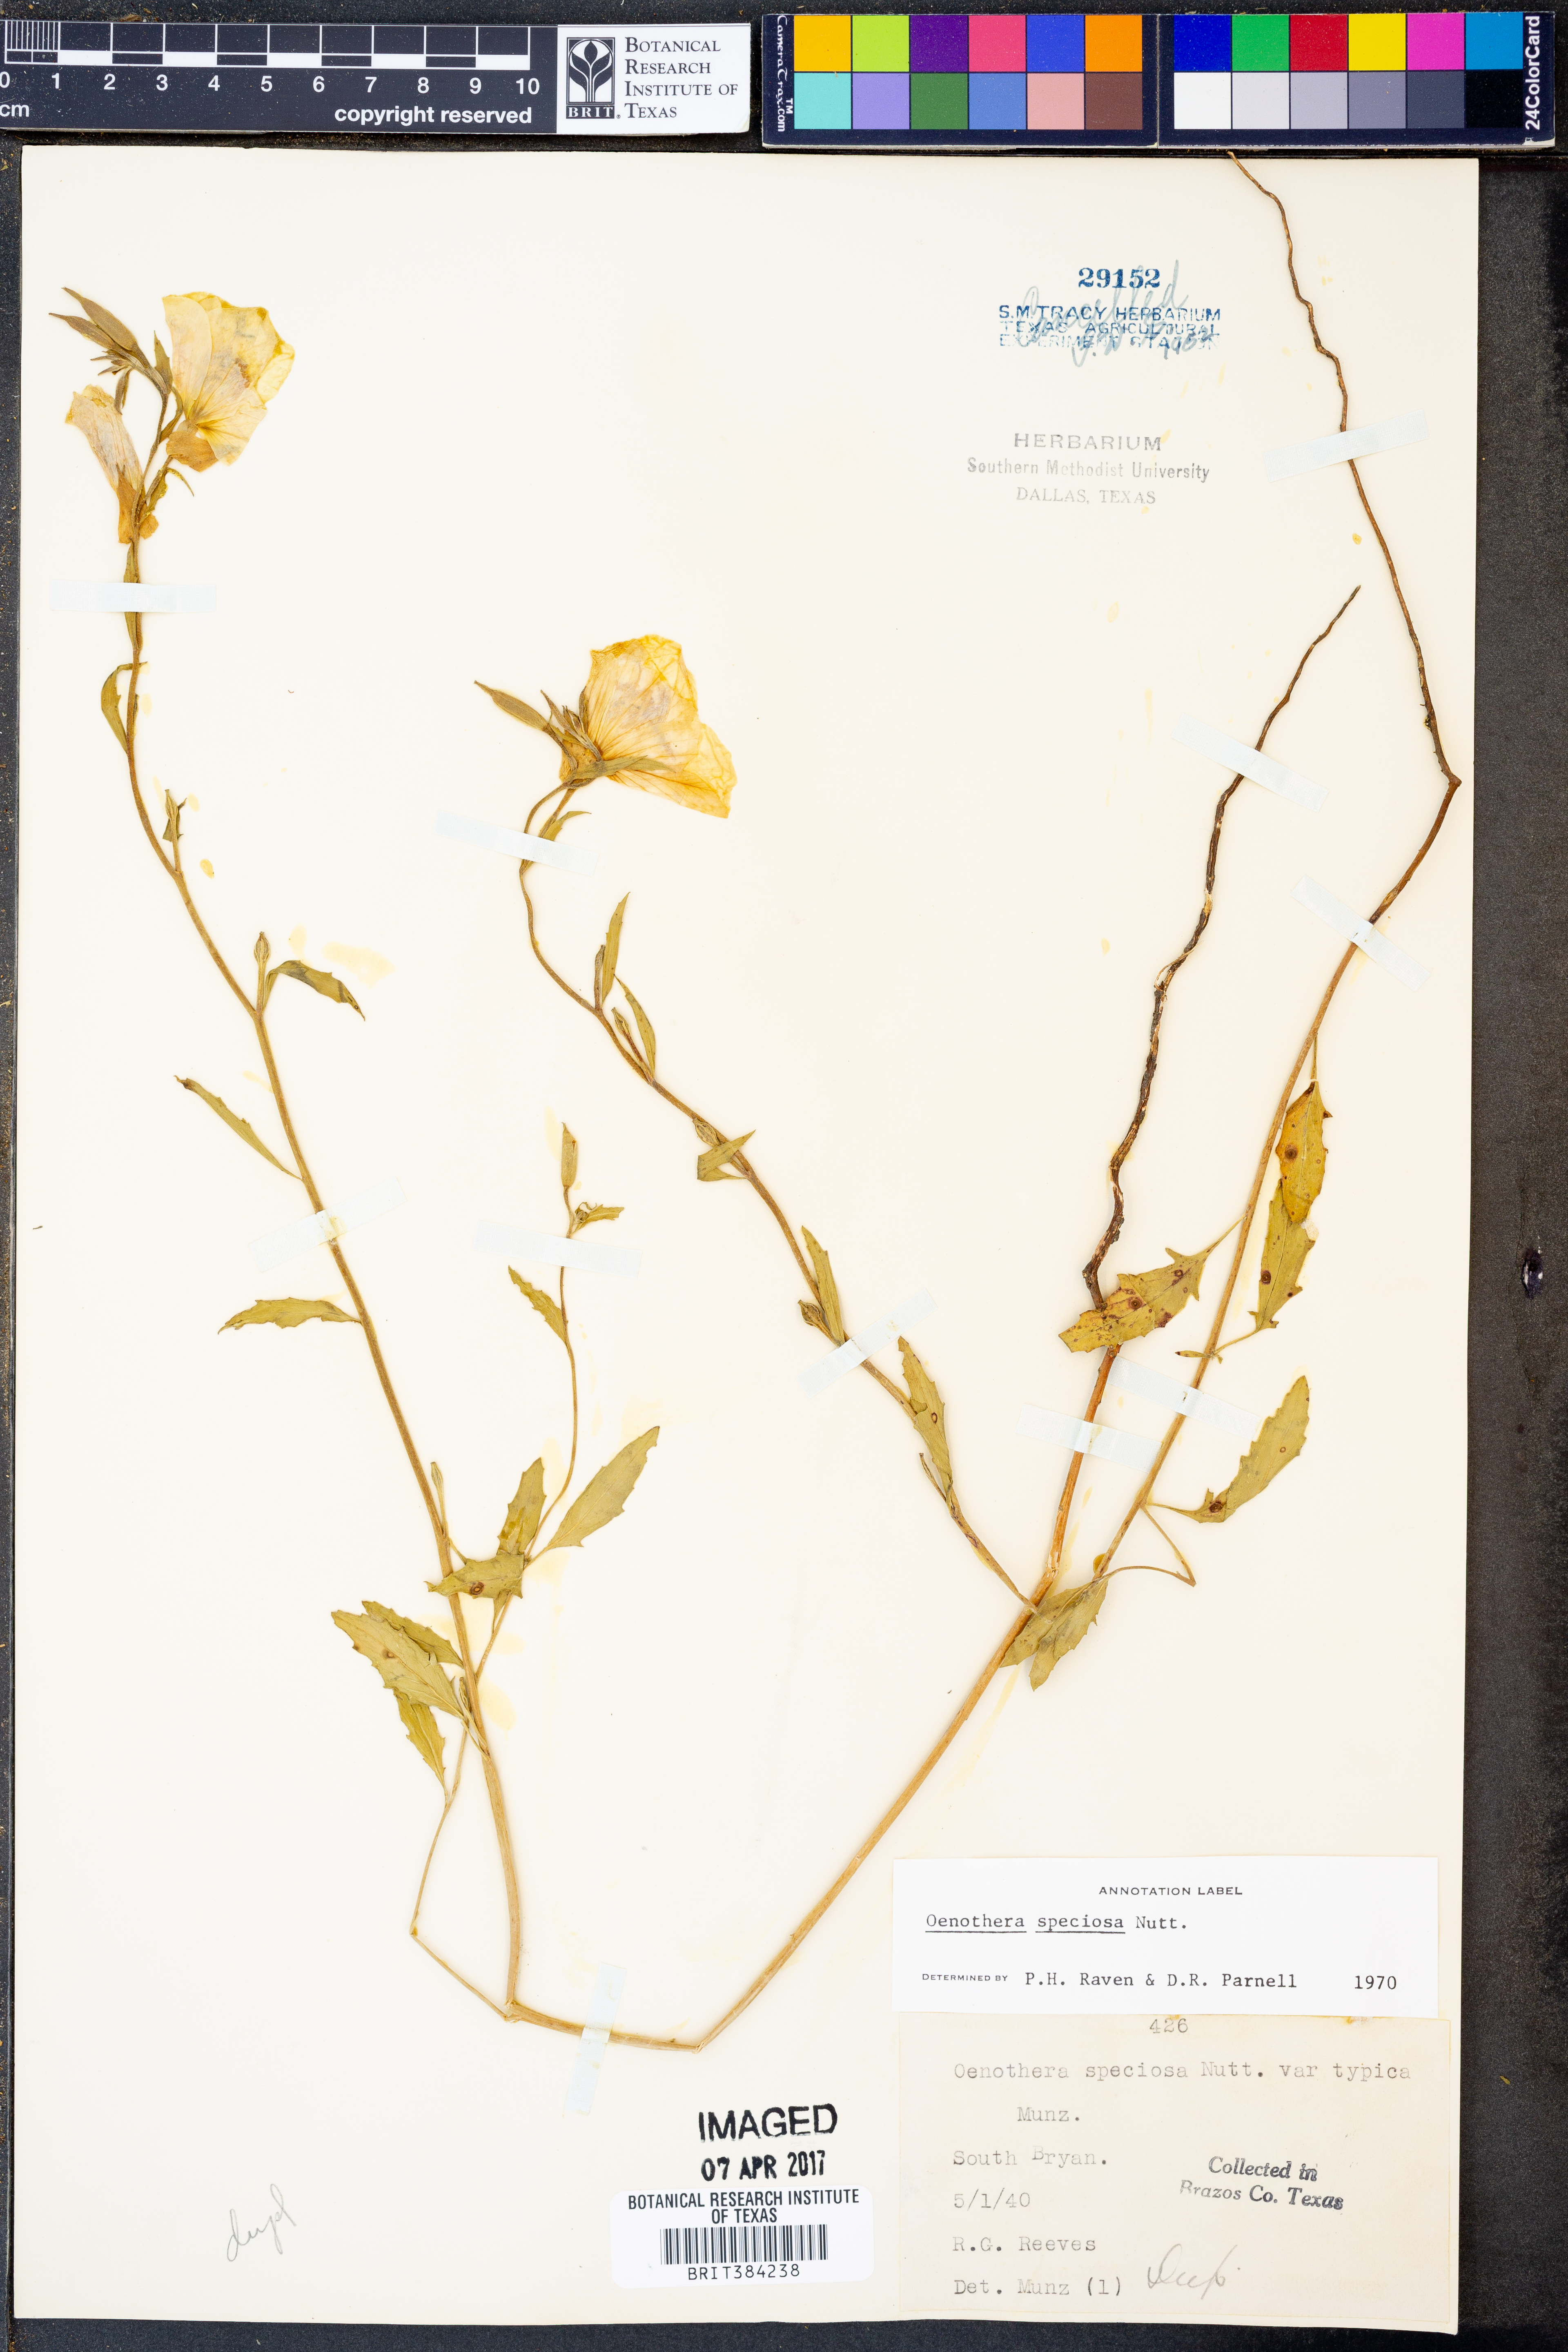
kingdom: Plantae
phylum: Tracheophyta
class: Magnoliopsida
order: Myrtales
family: Onagraceae
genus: Oenothera
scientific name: Oenothera speciosa
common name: White evening-primrose
